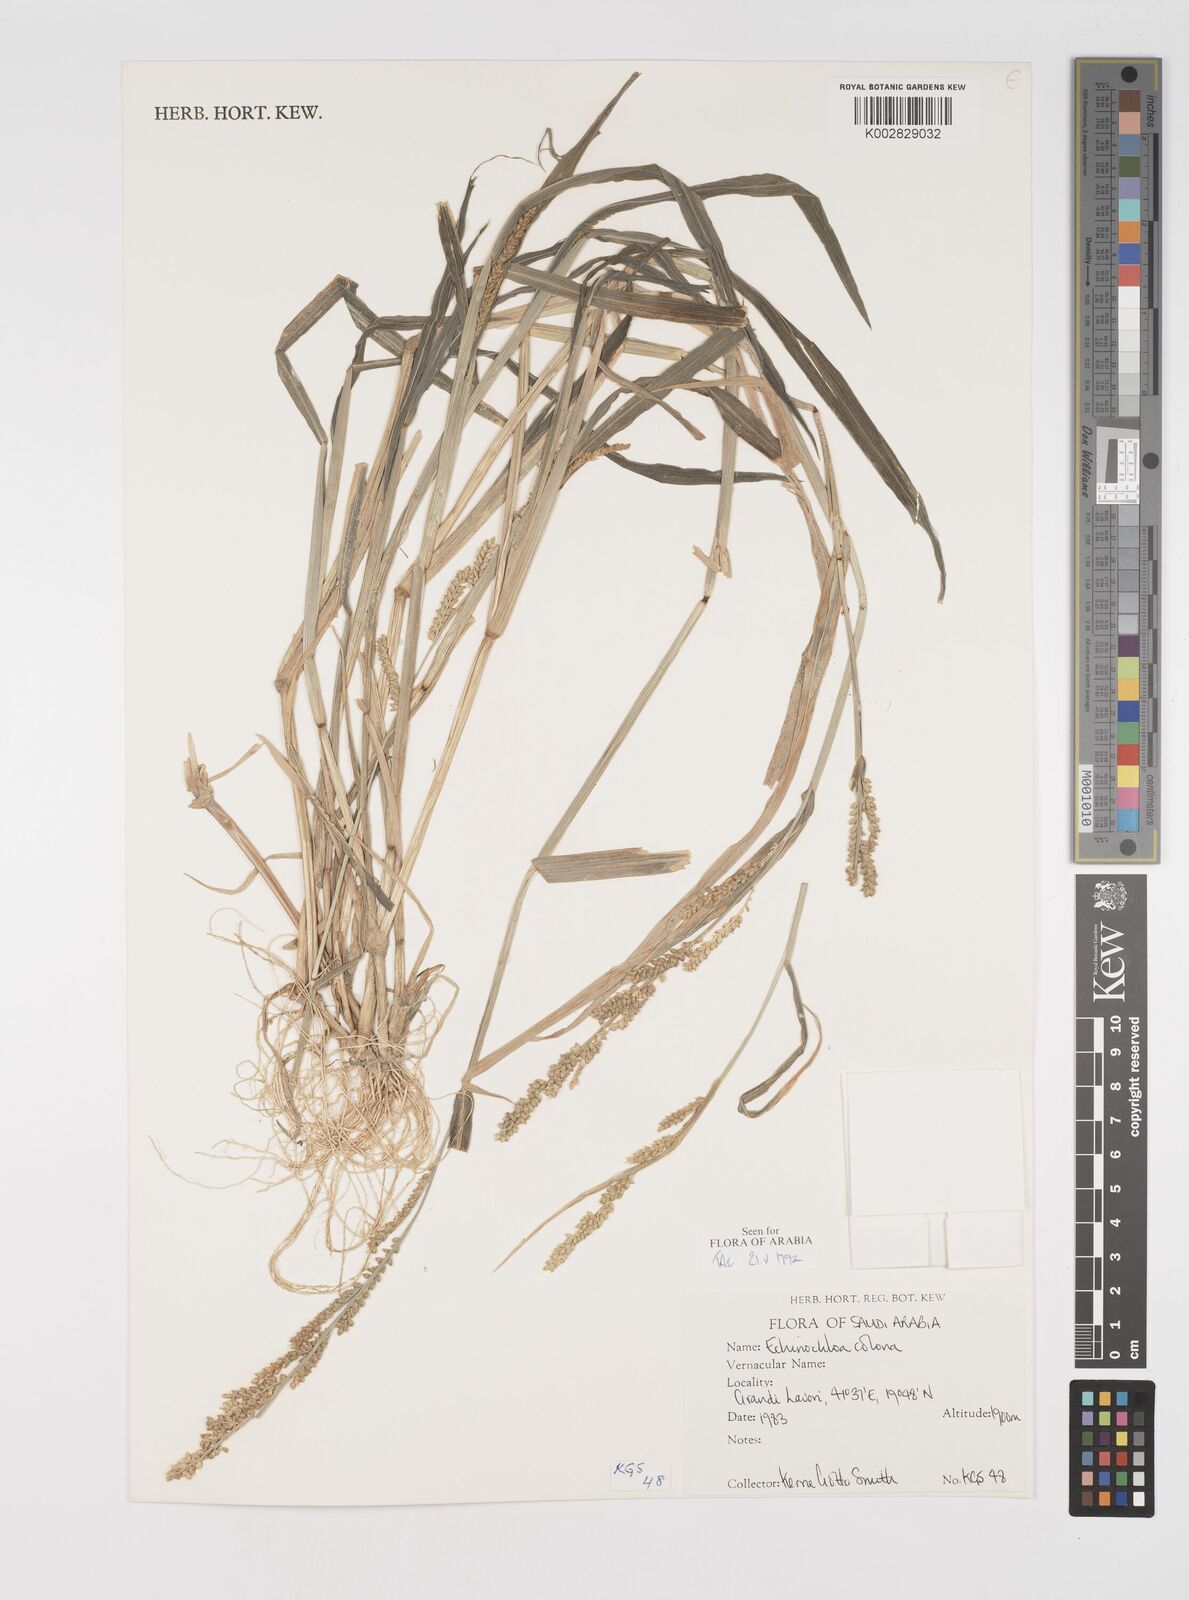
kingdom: Plantae
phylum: Tracheophyta
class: Liliopsida
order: Poales
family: Poaceae
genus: Echinochloa
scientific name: Echinochloa colonum
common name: Jungle rice
